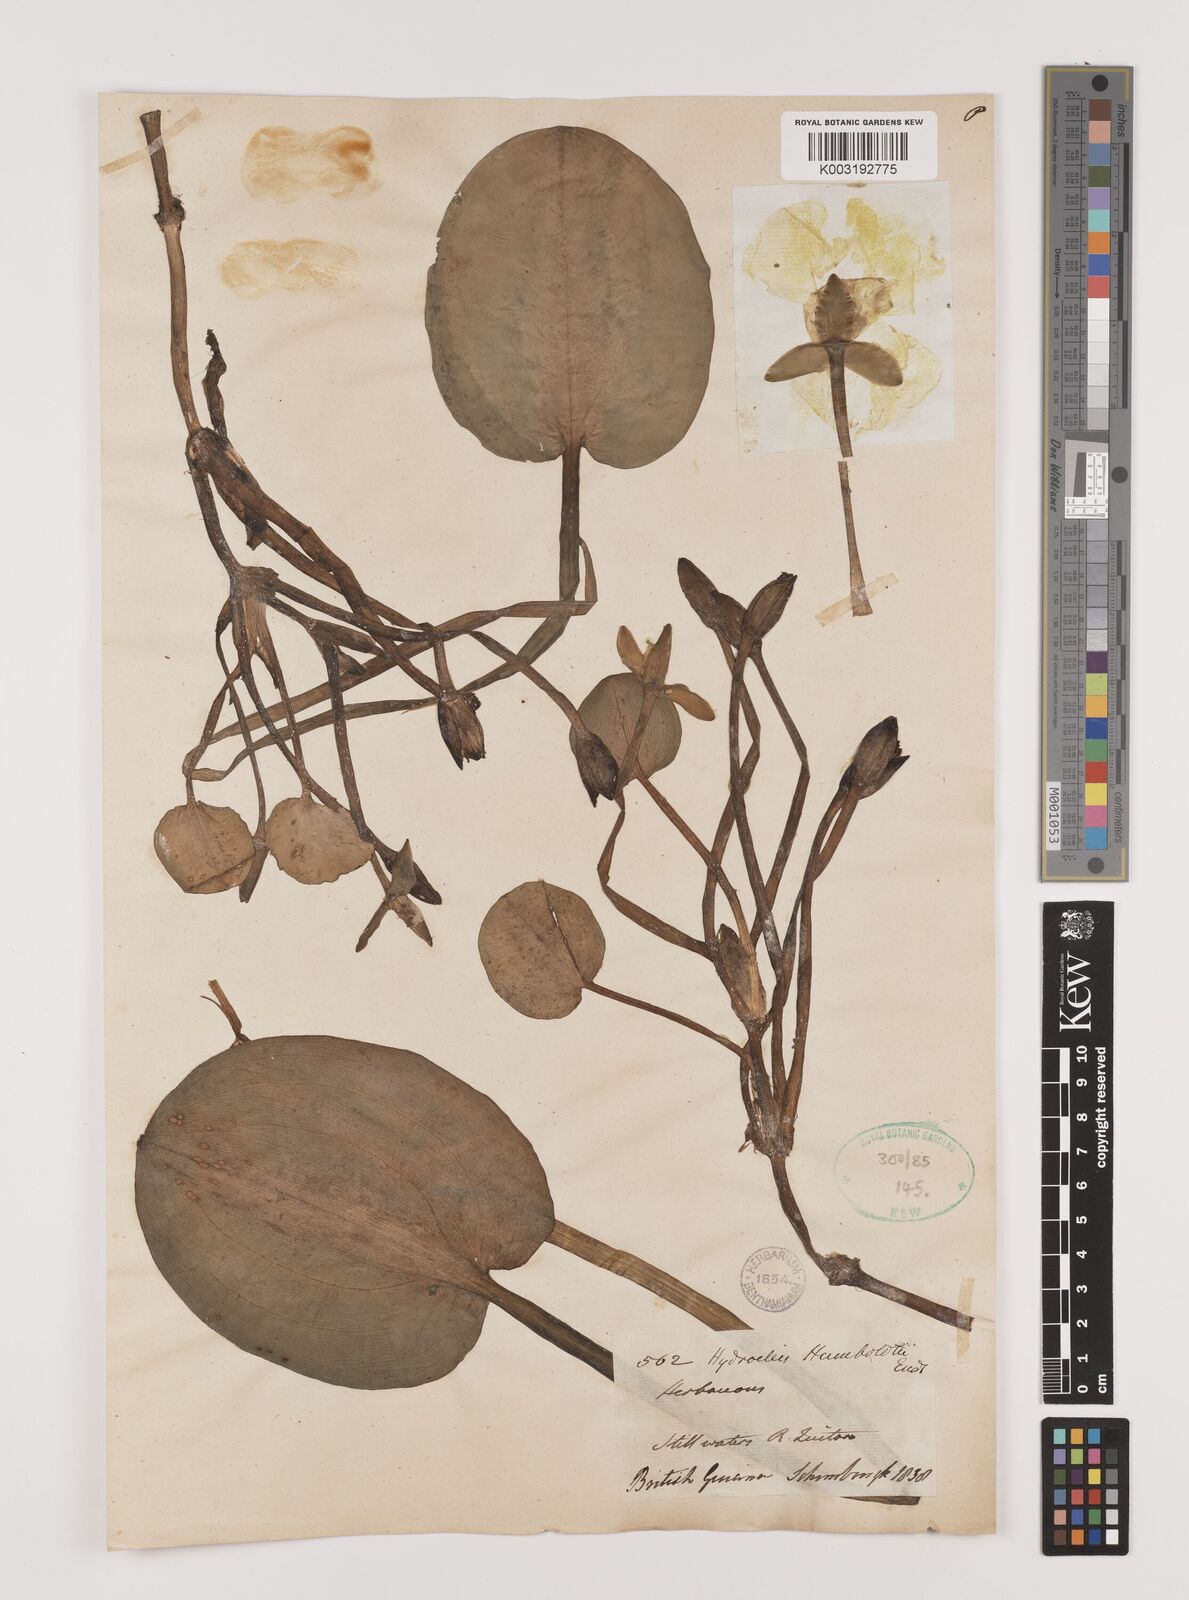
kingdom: Plantae
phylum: Tracheophyta
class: Liliopsida
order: Alismatales
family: Alismataceae
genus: Hydrocleys
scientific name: Hydrocleys nymphoides
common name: Water-poppy
